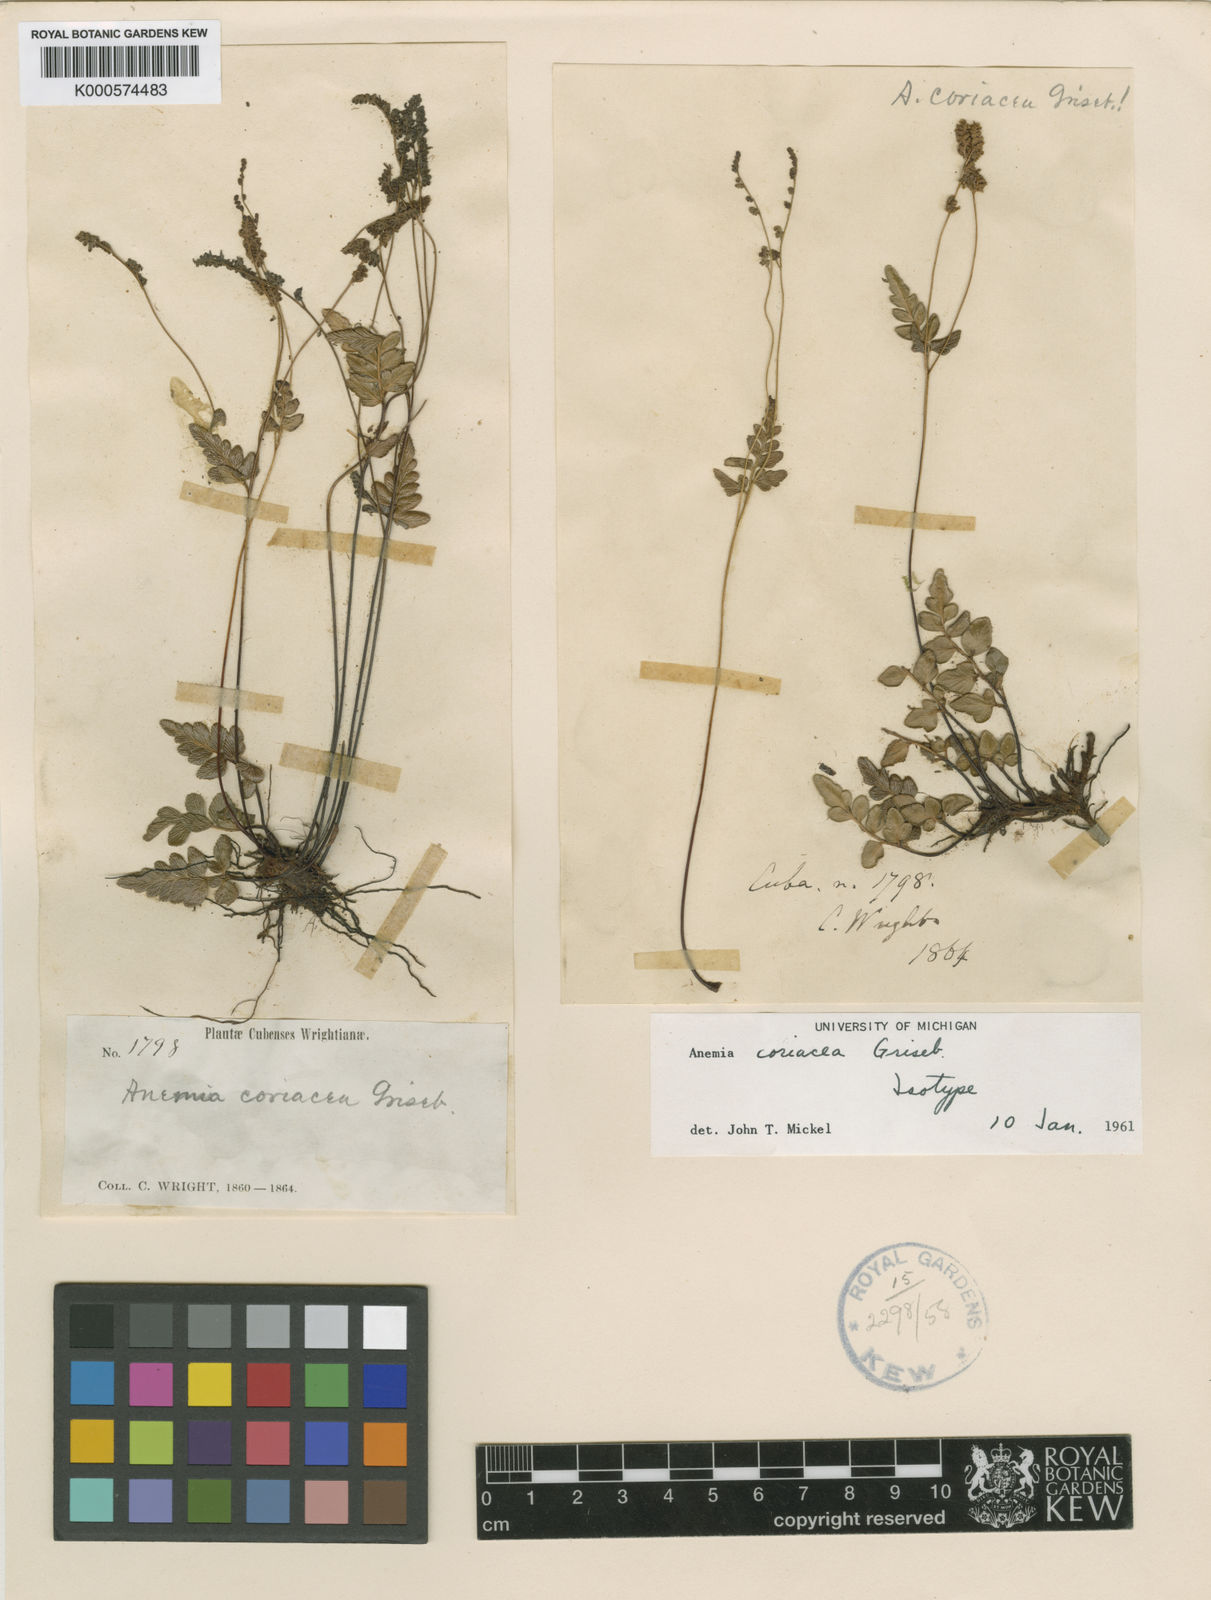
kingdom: Plantae
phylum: Tracheophyta
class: Polypodiopsida
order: Schizaeales
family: Anemiaceae
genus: Anemia
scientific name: Anemia coriacea
